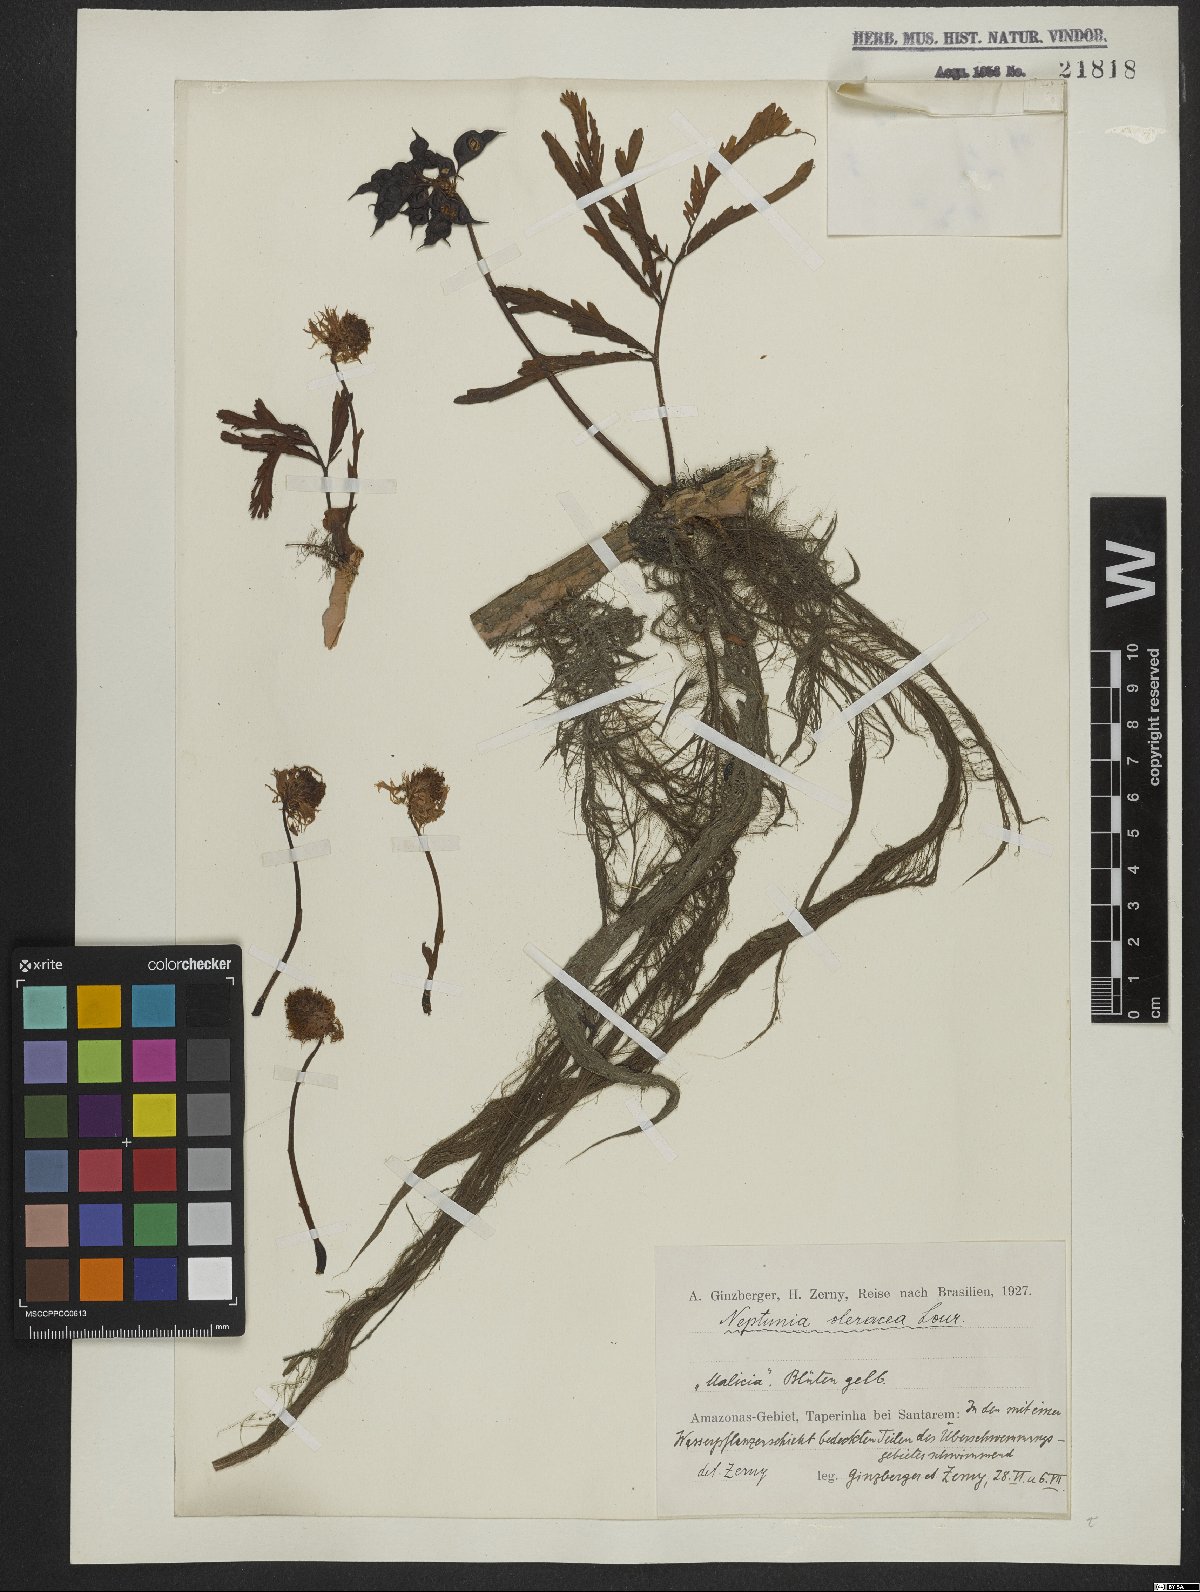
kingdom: Plantae
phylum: Tracheophyta
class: Magnoliopsida
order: Fabales
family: Fabaceae
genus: Neptunia
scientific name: Neptunia prostrata
